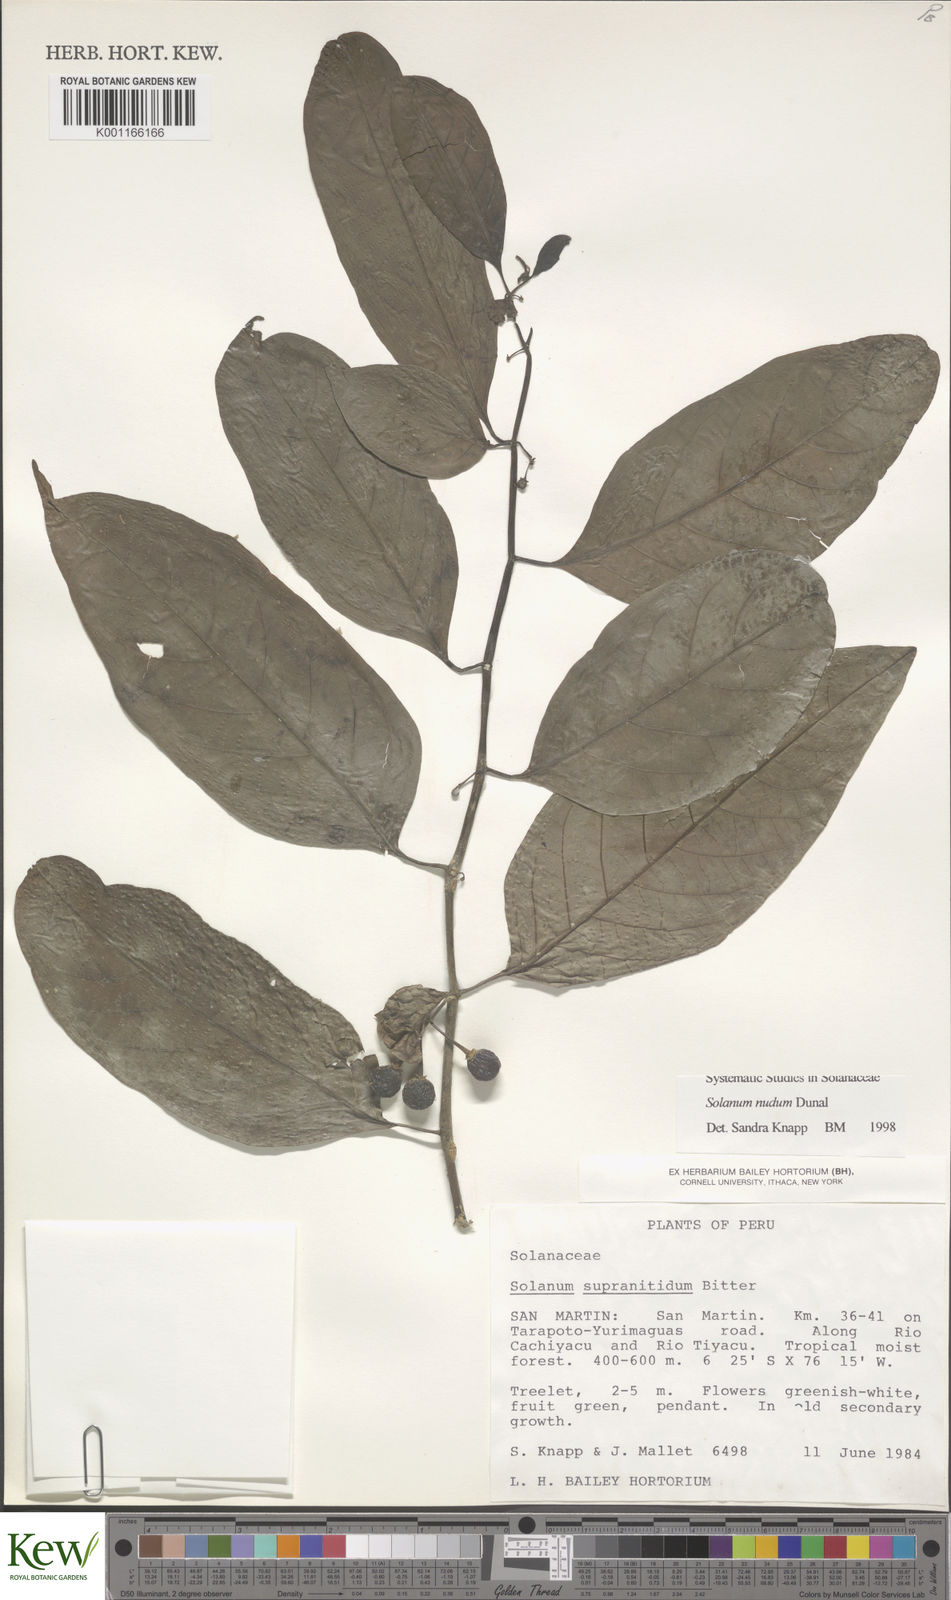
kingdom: Plantae
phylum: Tracheophyta
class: Magnoliopsida
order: Solanales
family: Solanaceae
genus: Solanum
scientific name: Solanum nudum
